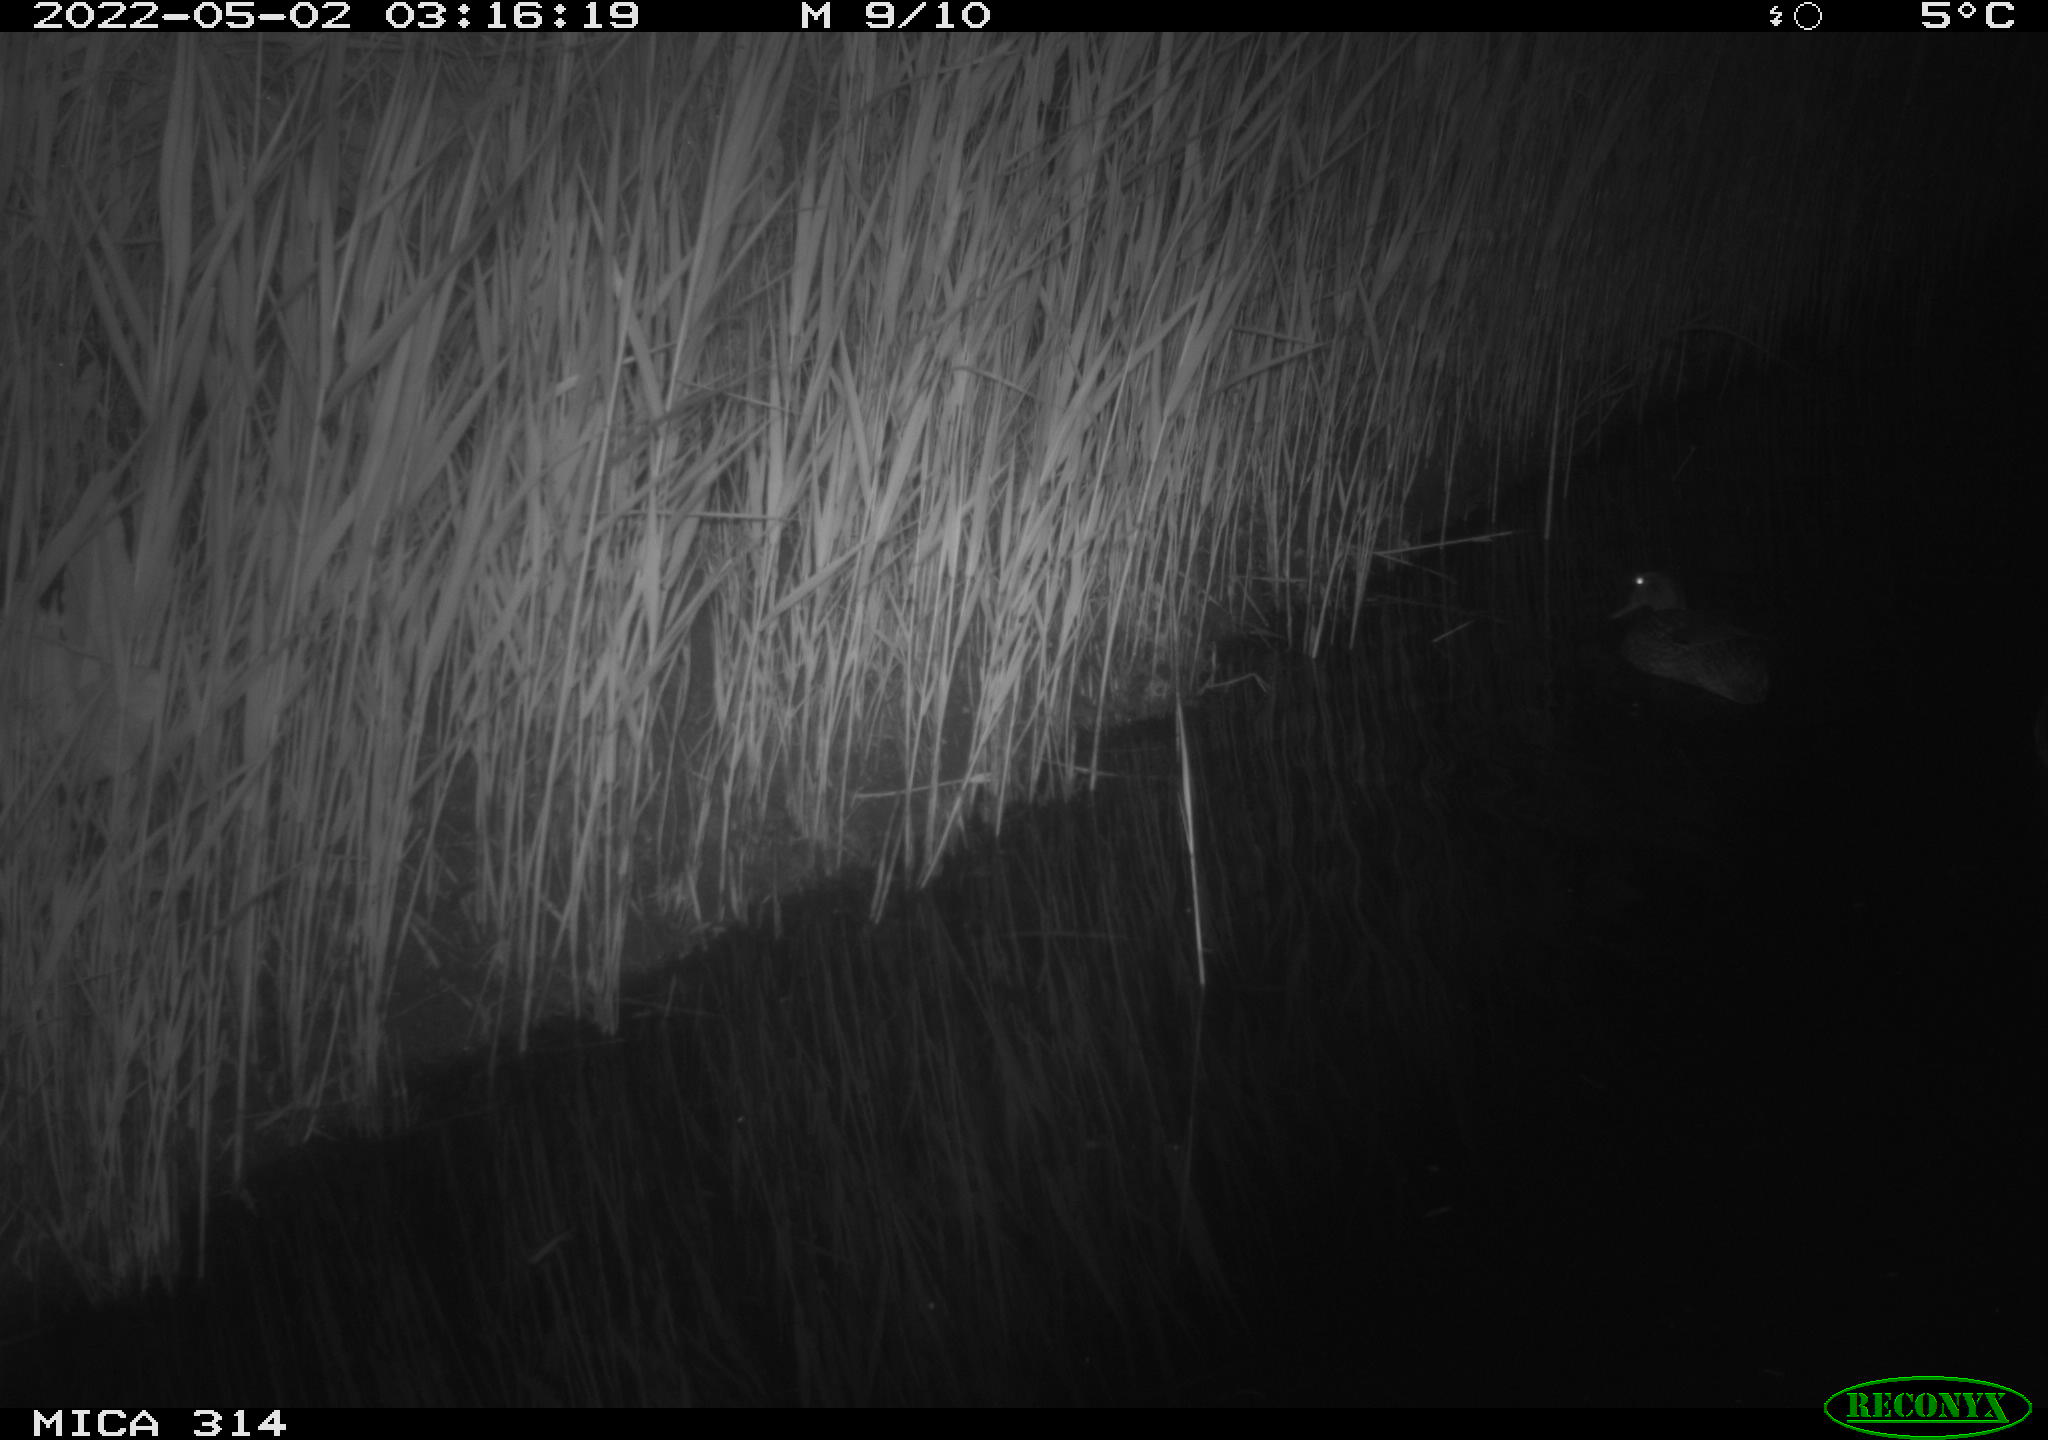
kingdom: Animalia
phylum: Chordata
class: Aves
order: Anseriformes
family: Anatidae
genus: Anas
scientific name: Anas platyrhynchos
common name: Mallard
